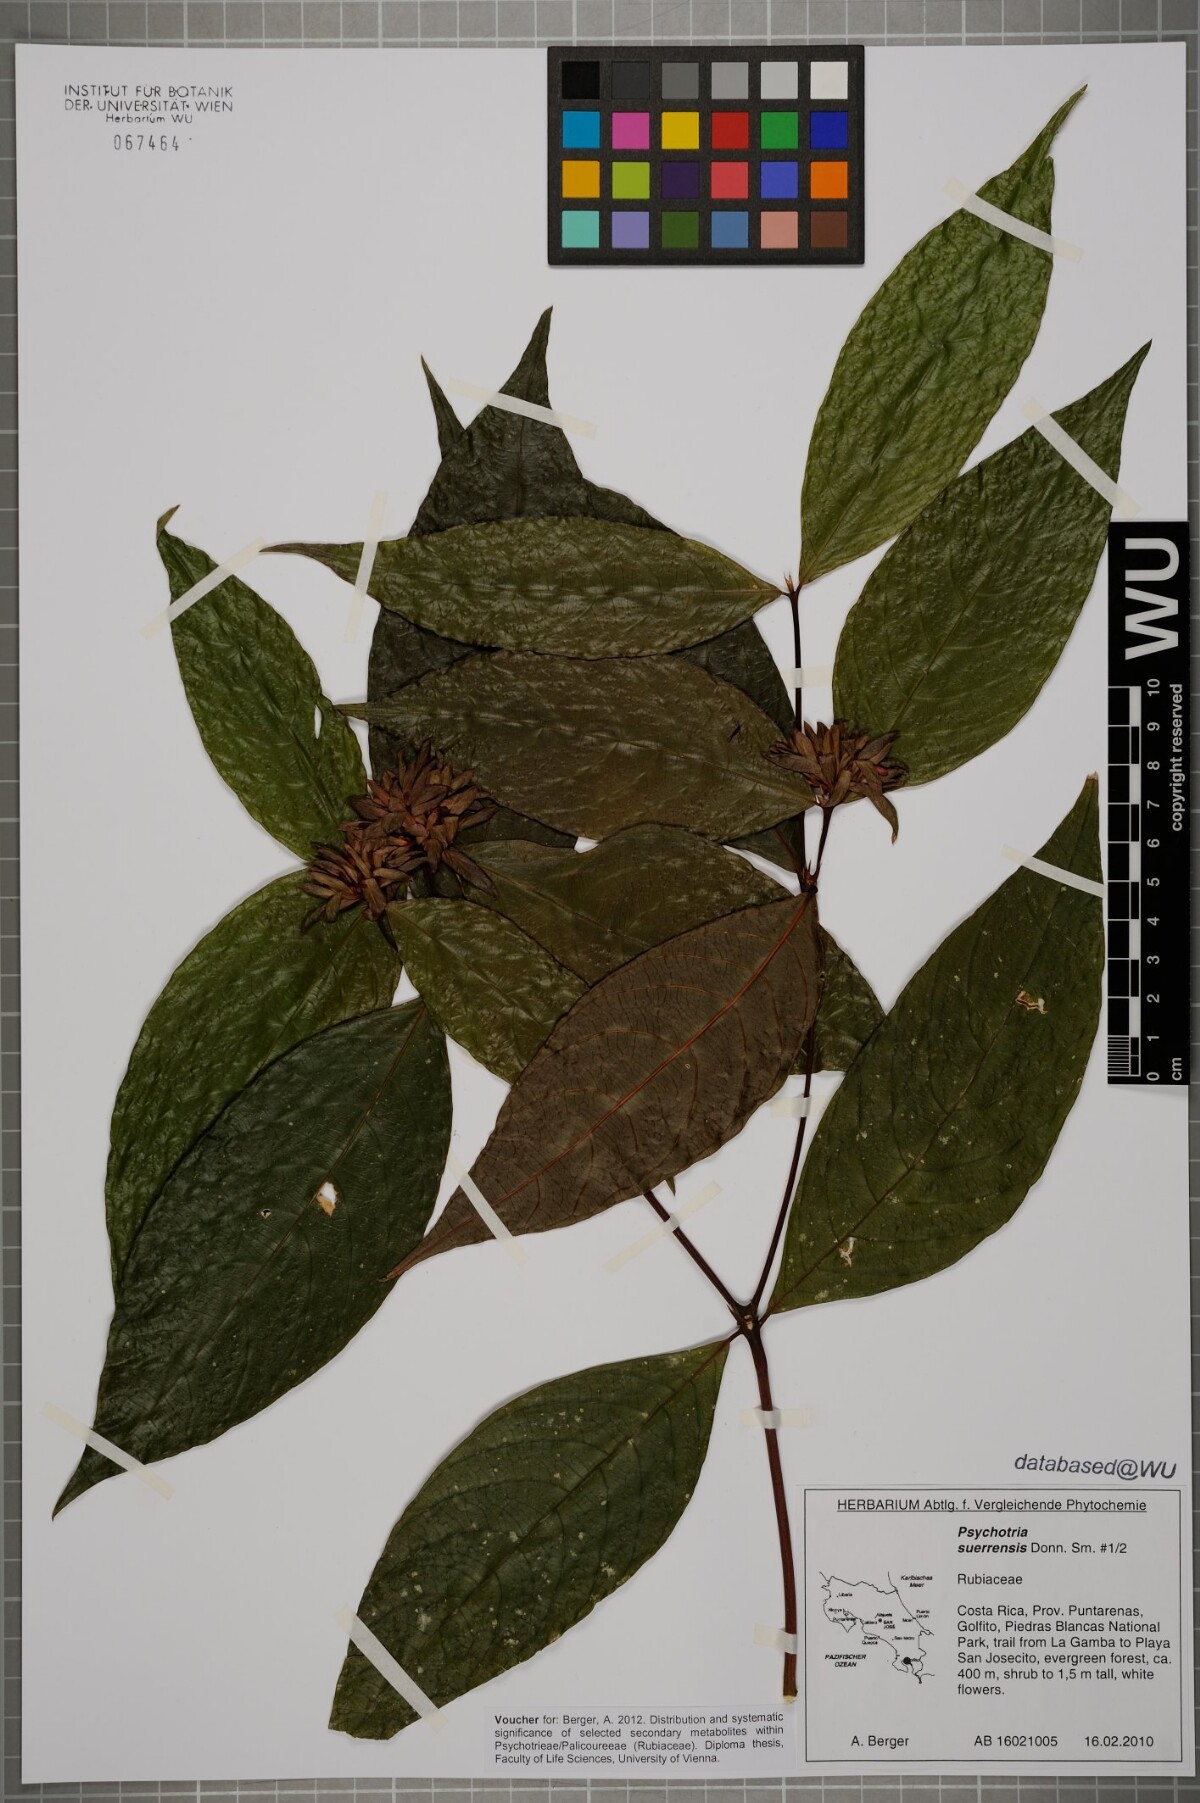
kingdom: Plantae
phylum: Tracheophyta
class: Magnoliopsida
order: Gentianales
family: Rubiaceae
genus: Palicourea
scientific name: Palicourea suerrensis
